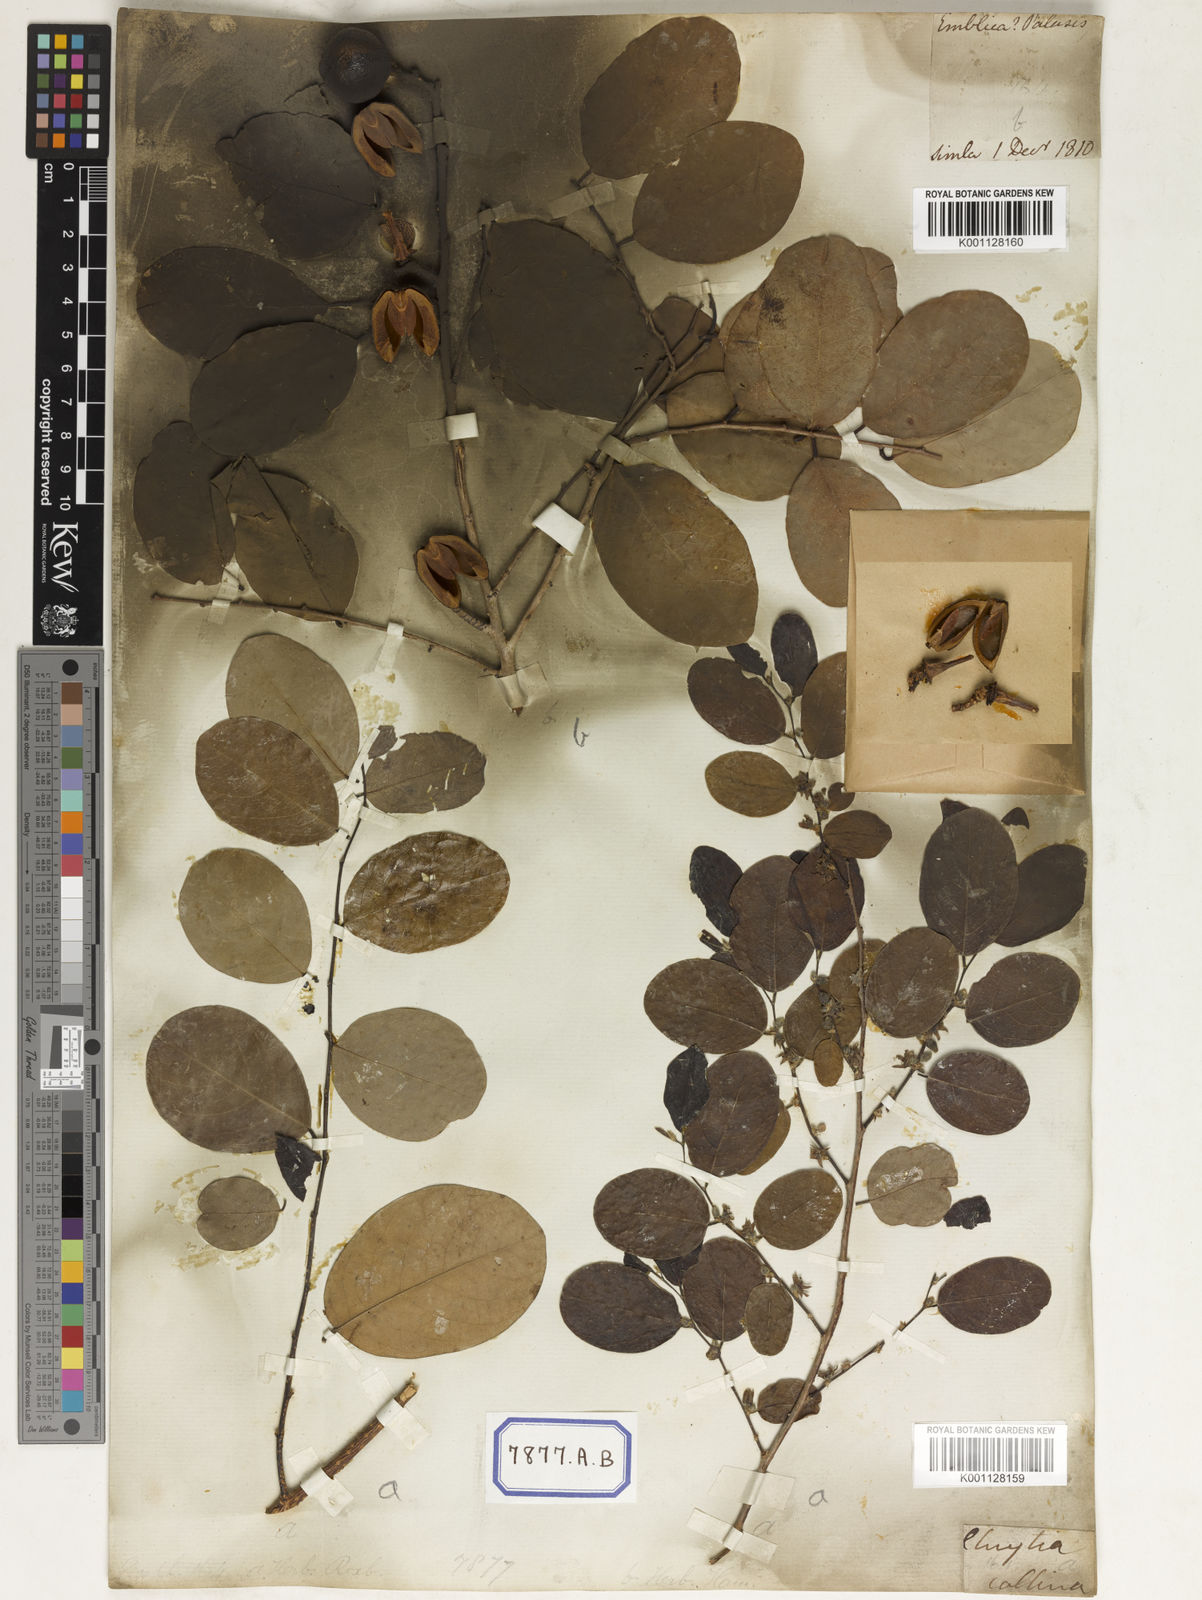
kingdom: Plantae
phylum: Tracheophyta
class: Magnoliopsida
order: Malpighiales
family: Euphorbiaceae
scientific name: Euphorbiaceae
